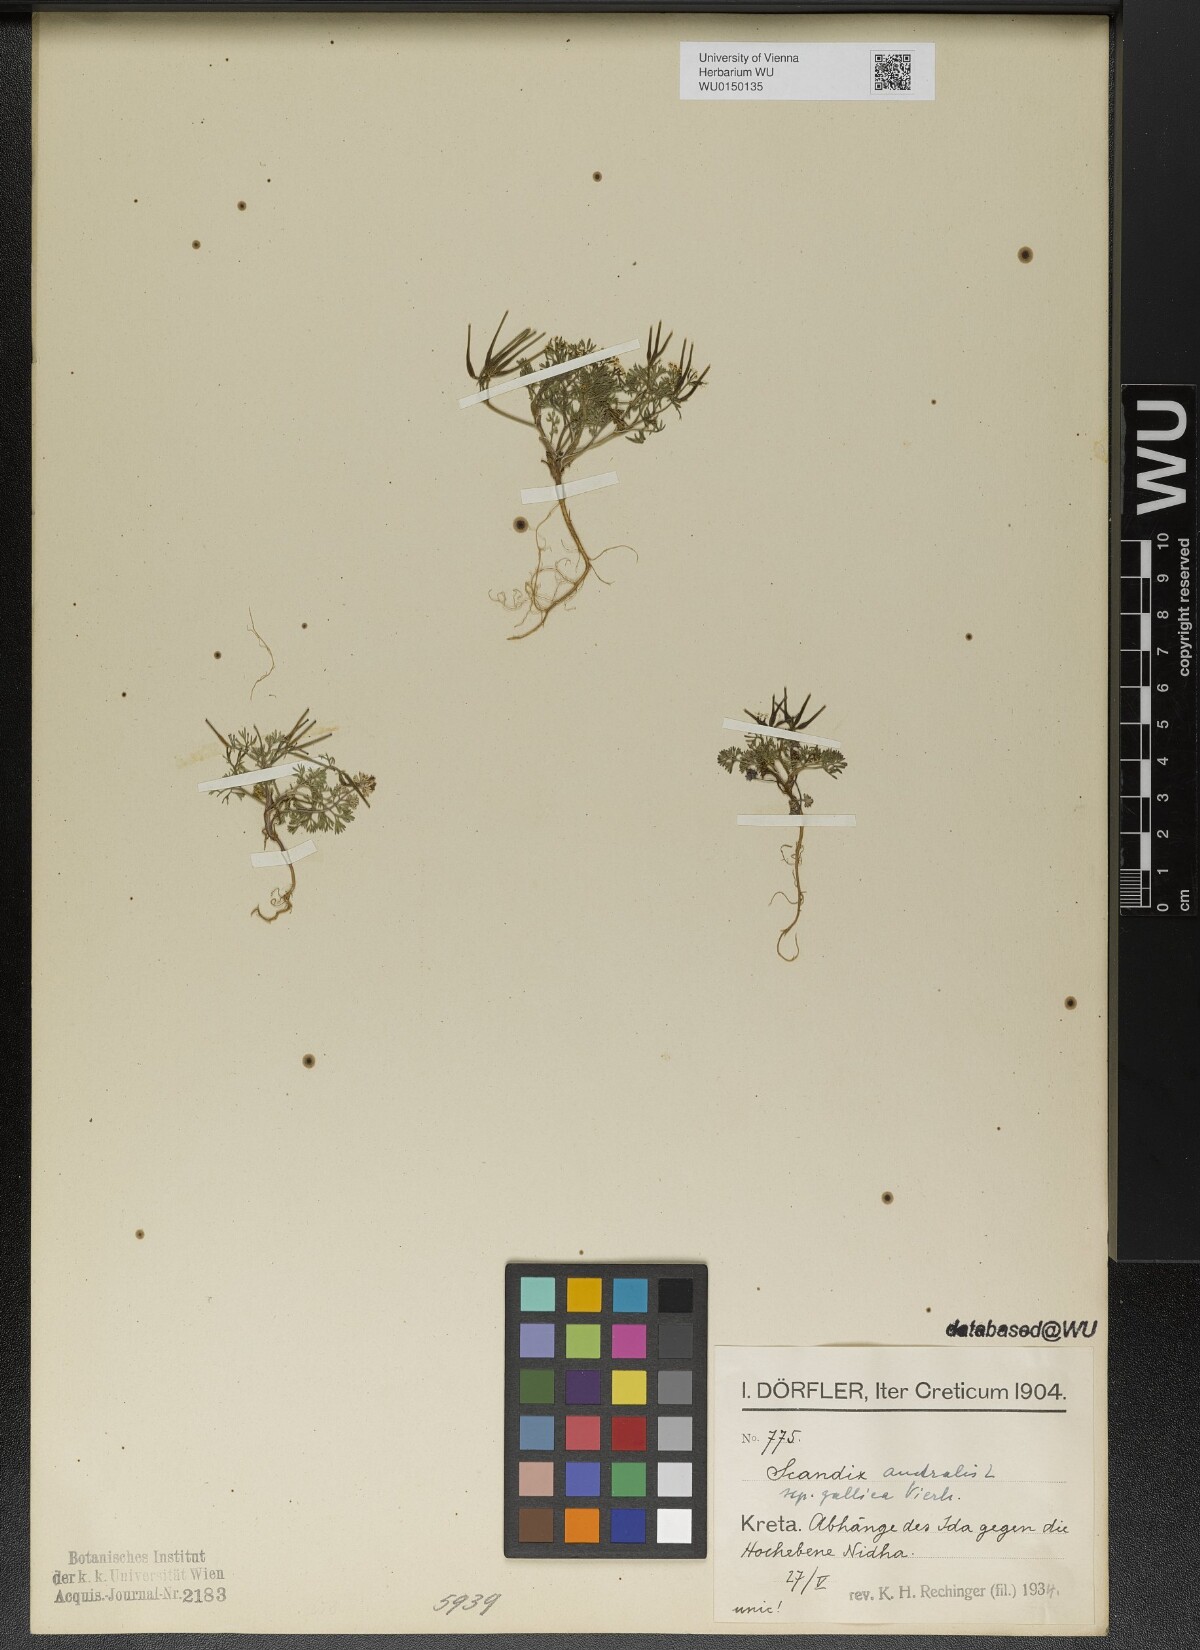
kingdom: Plantae
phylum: Tracheophyta
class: Magnoliopsida
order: Apiales
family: Apiaceae
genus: Scandix
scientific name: Scandix australis
